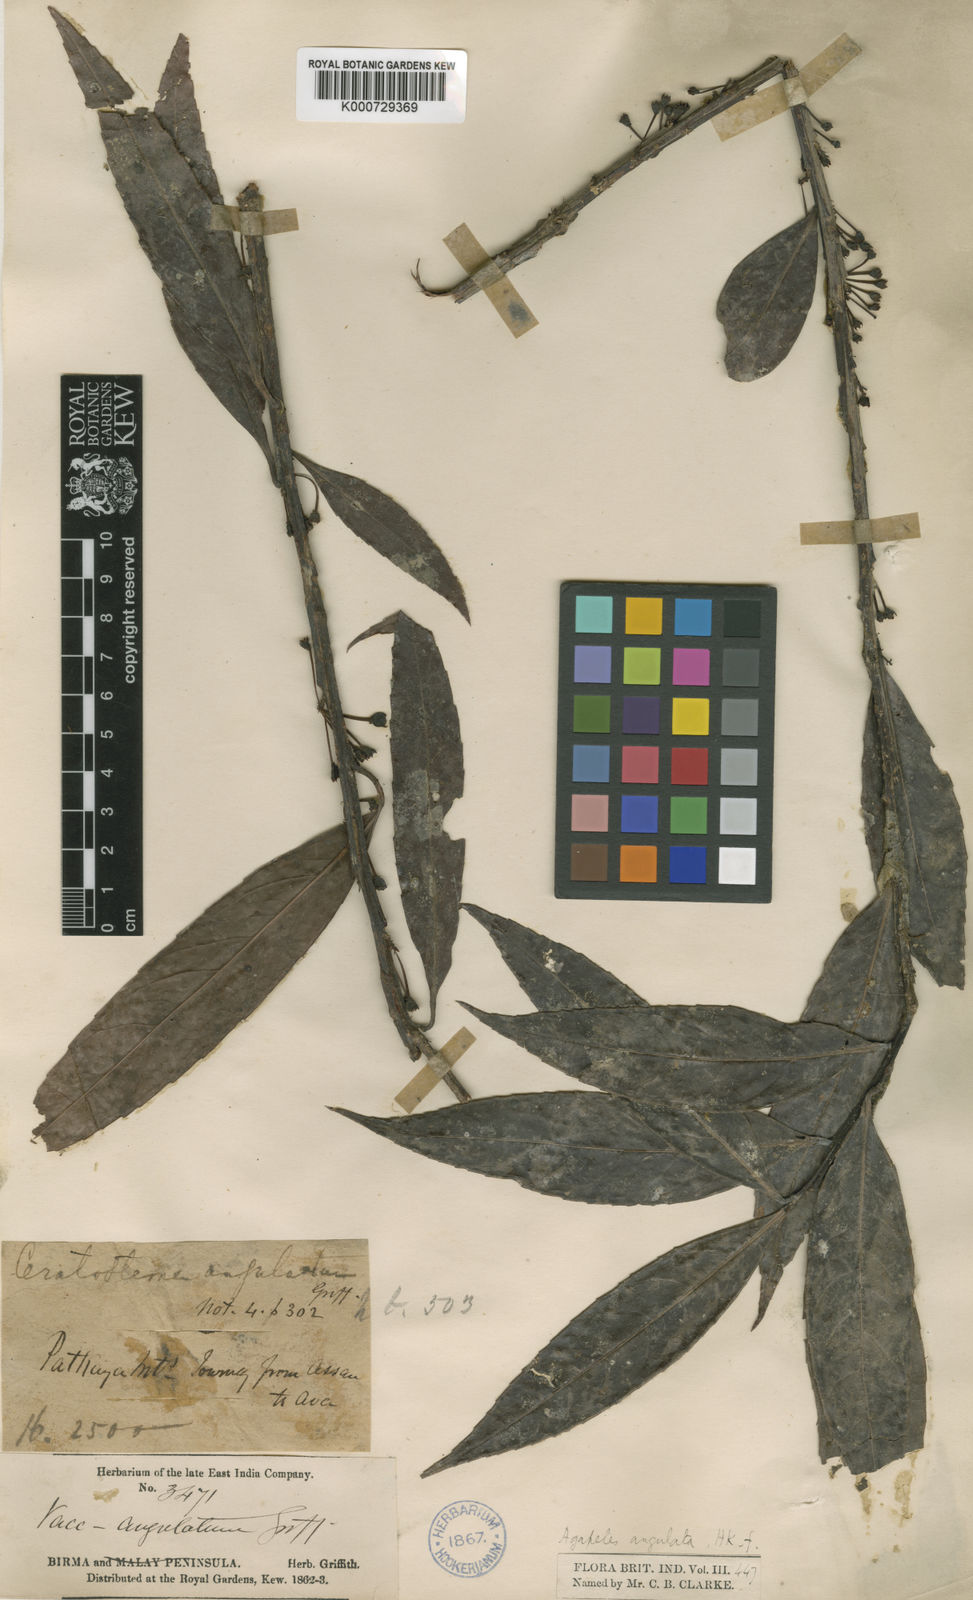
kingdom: Plantae
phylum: Tracheophyta
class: Magnoliopsida
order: Ericales
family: Ericaceae
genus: Agapetes
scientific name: Agapetes angulata
